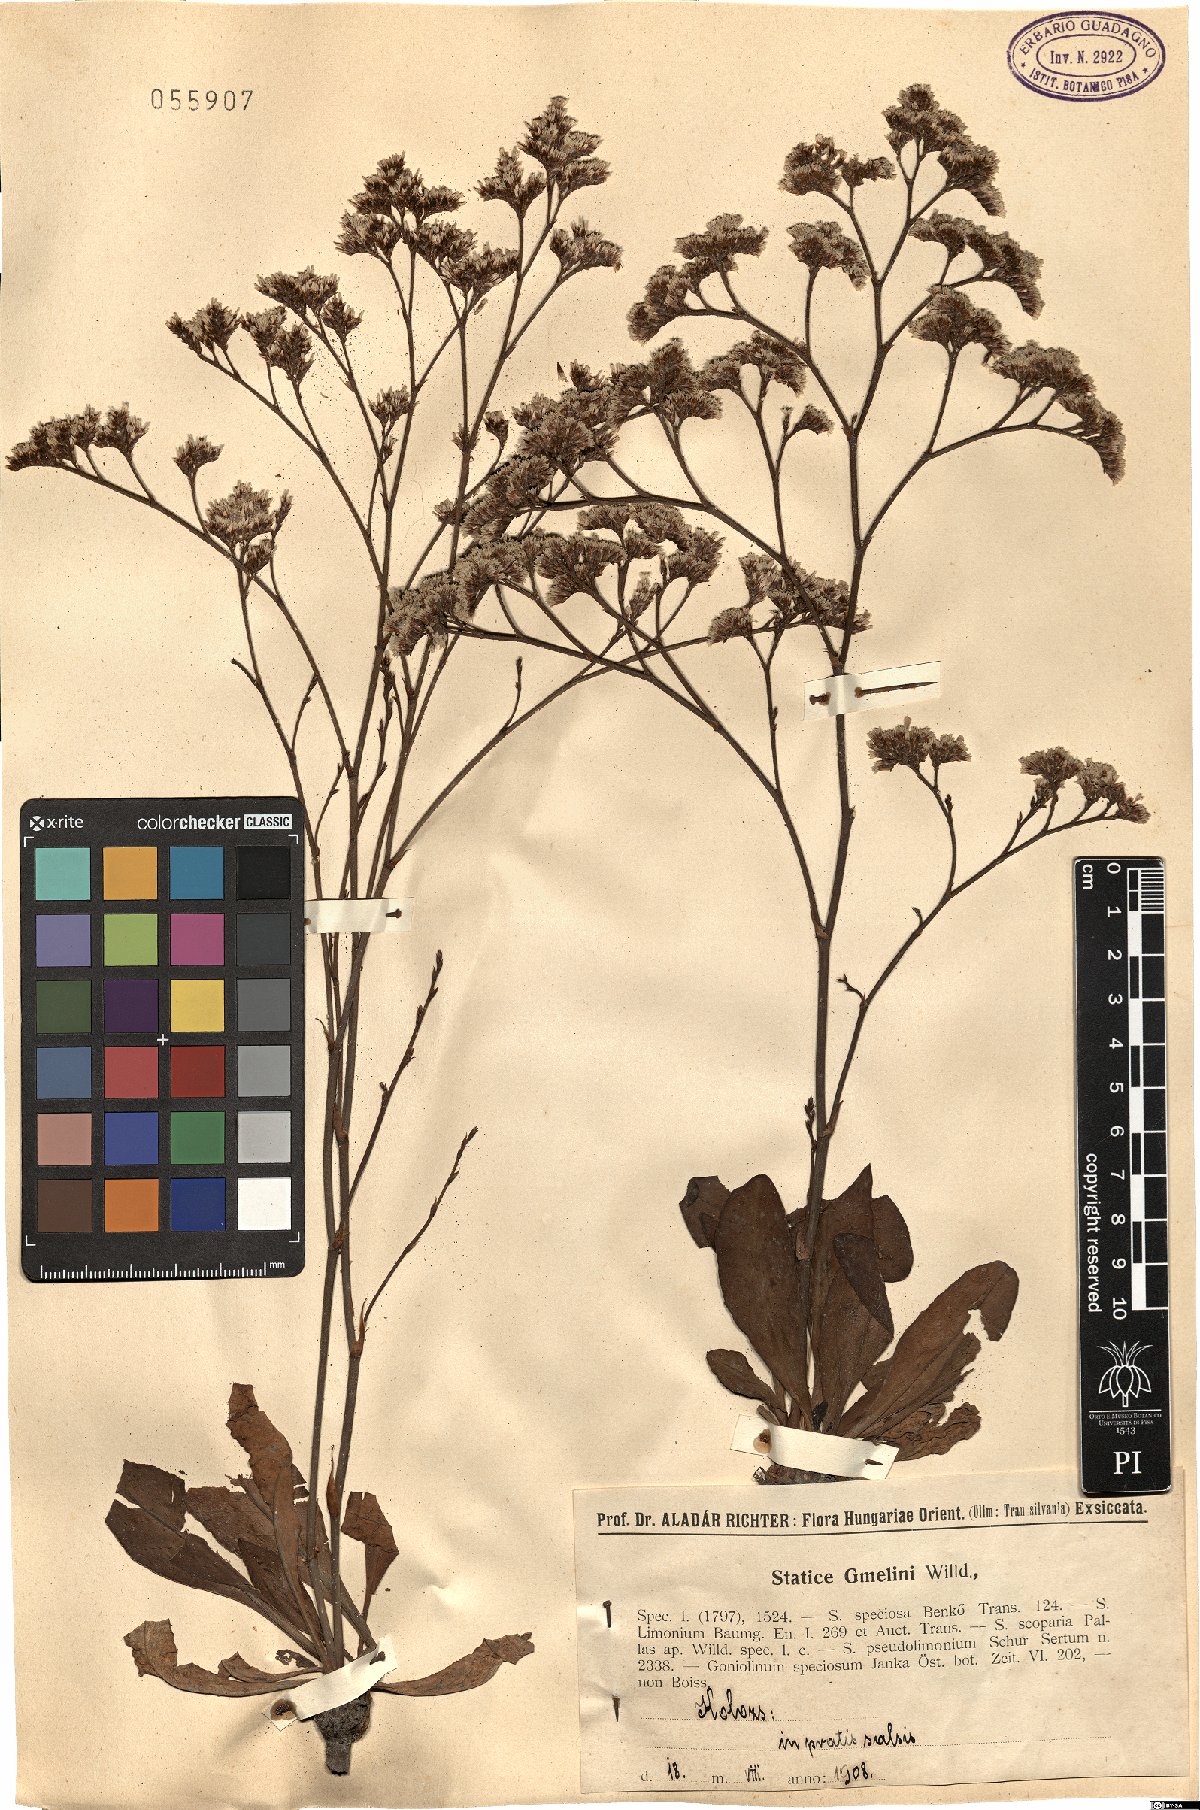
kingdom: Plantae
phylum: Tracheophyta
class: Magnoliopsida
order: Caryophyllales
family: Plumbaginaceae
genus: Limonium
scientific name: Limonium gmelini
